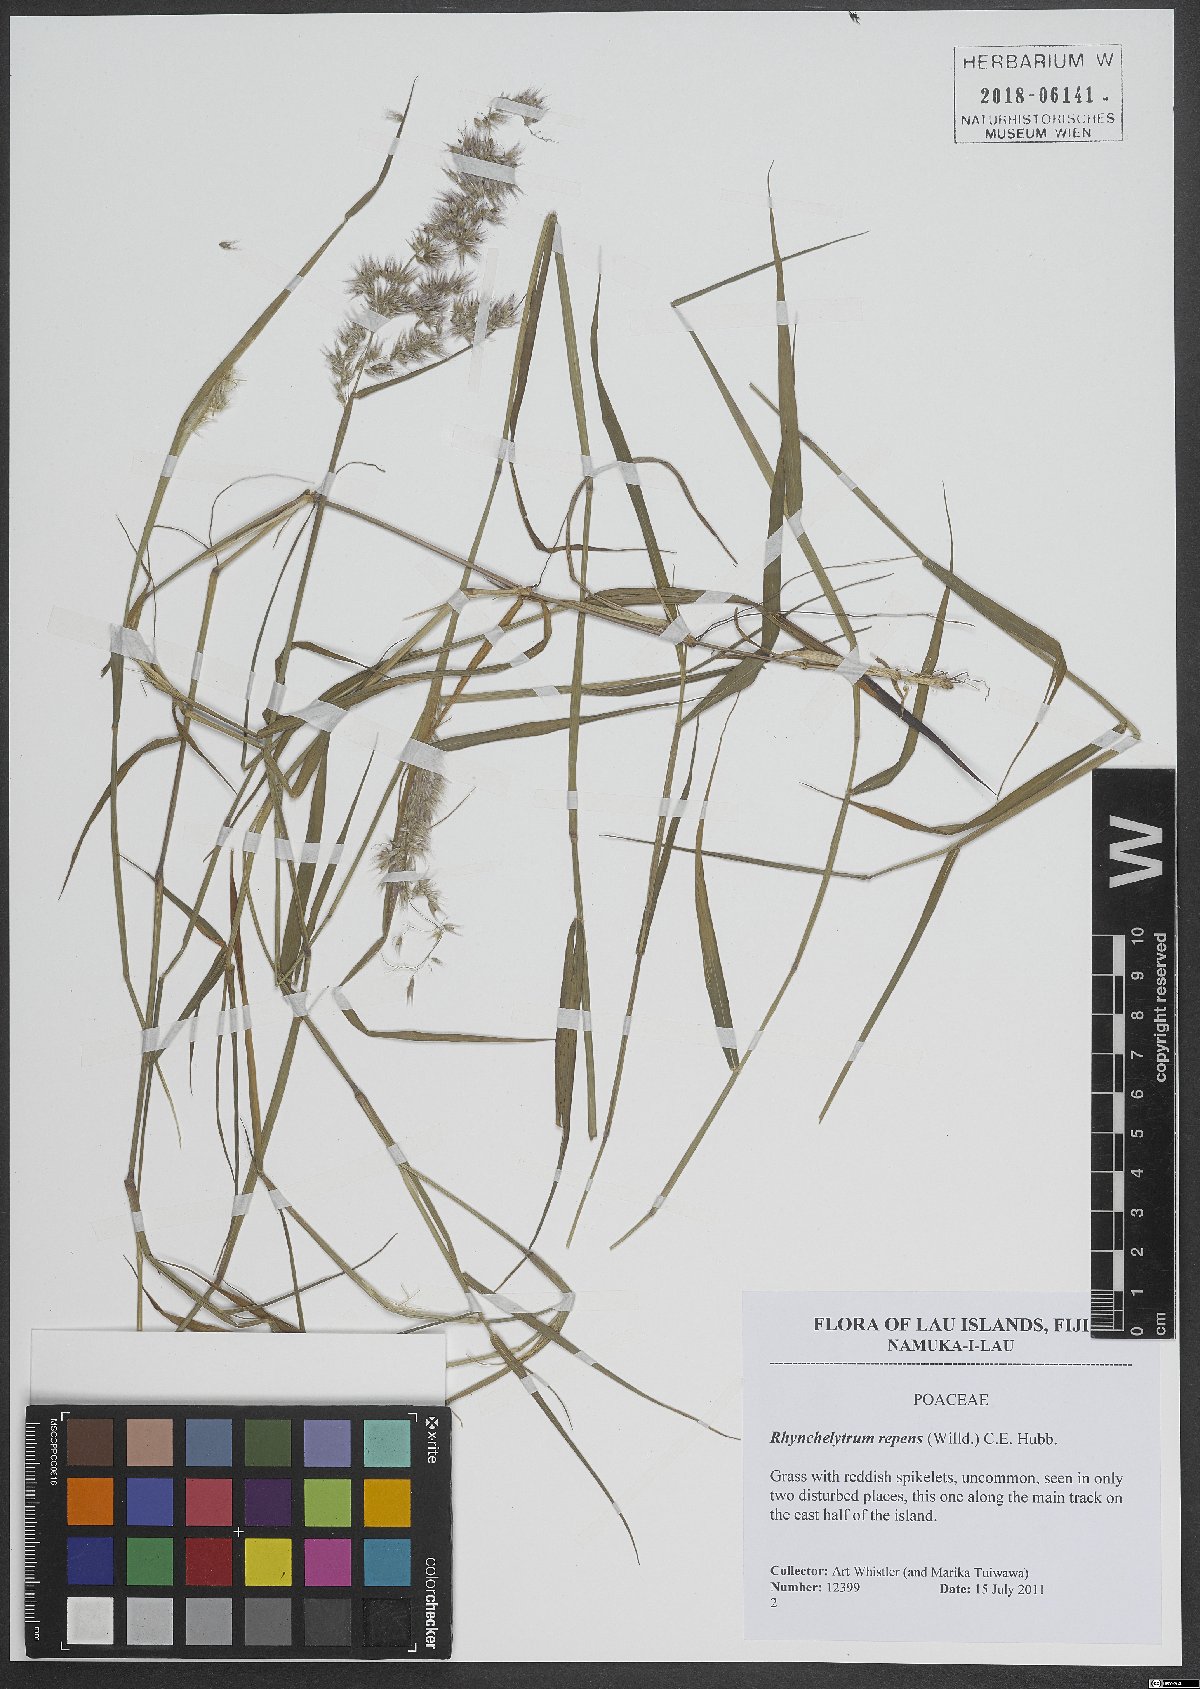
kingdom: Plantae
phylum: Tracheophyta
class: Liliopsida
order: Poales
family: Poaceae
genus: Melinis
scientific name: Melinis repens
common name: Rose natal grass
